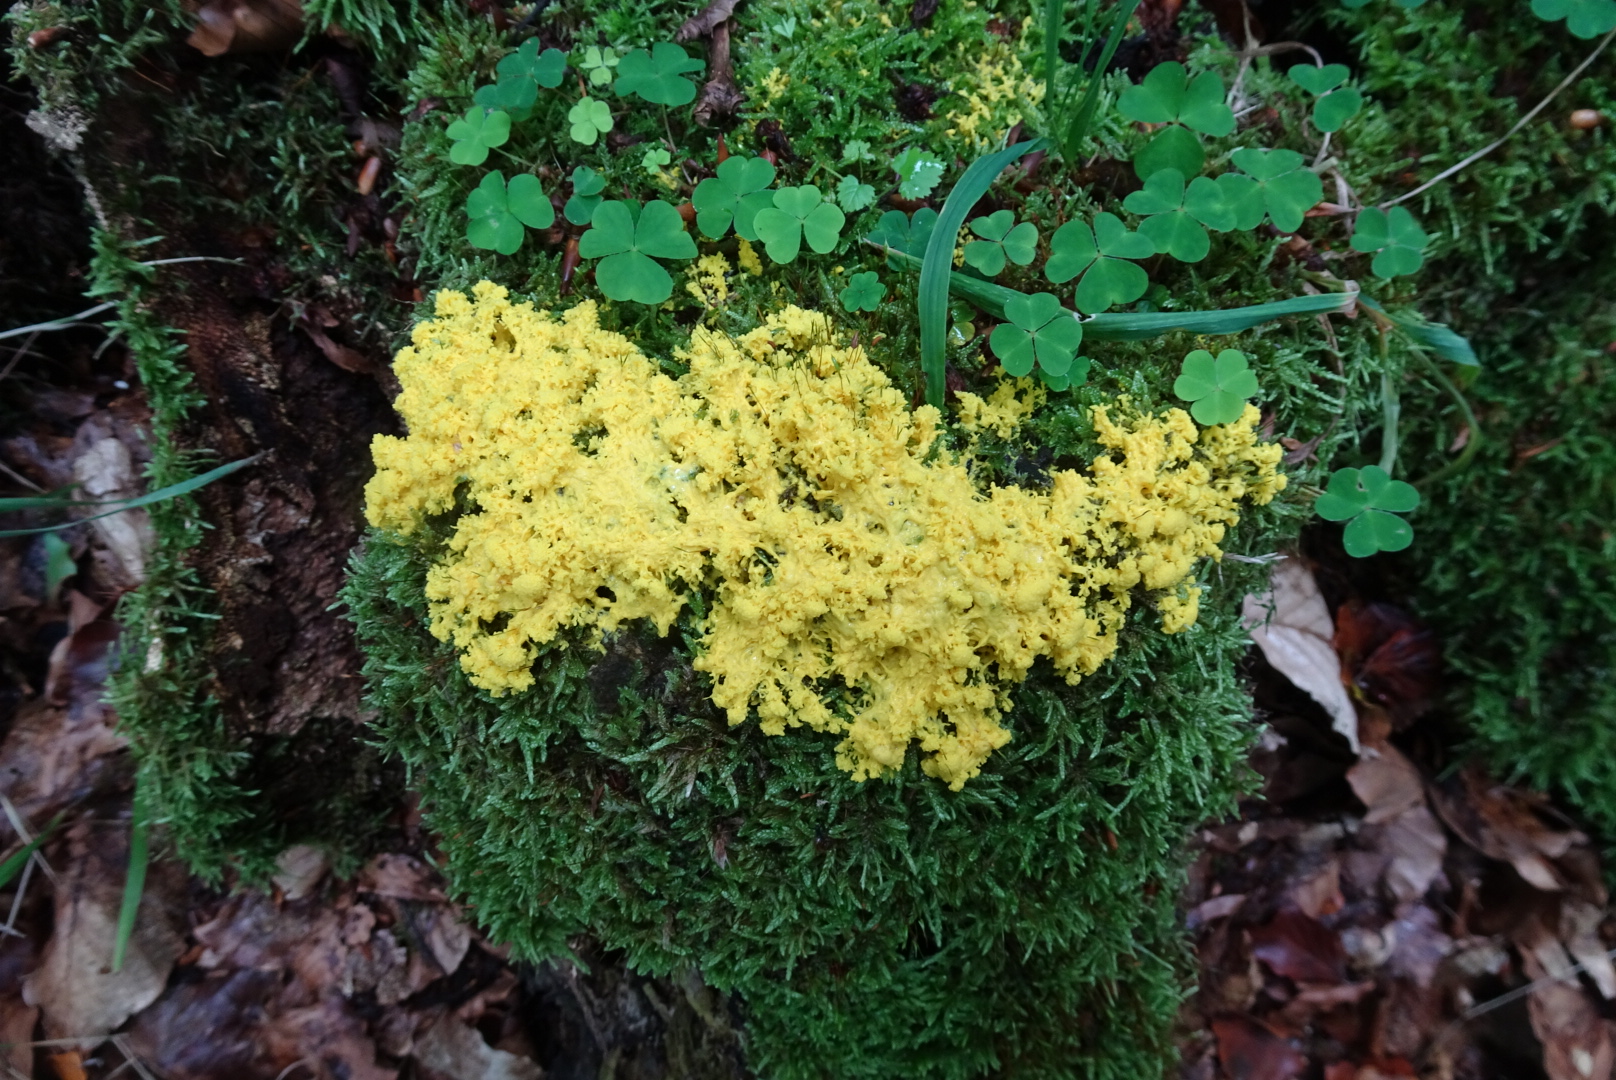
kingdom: Protozoa
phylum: Mycetozoa
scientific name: Mycetozoa
